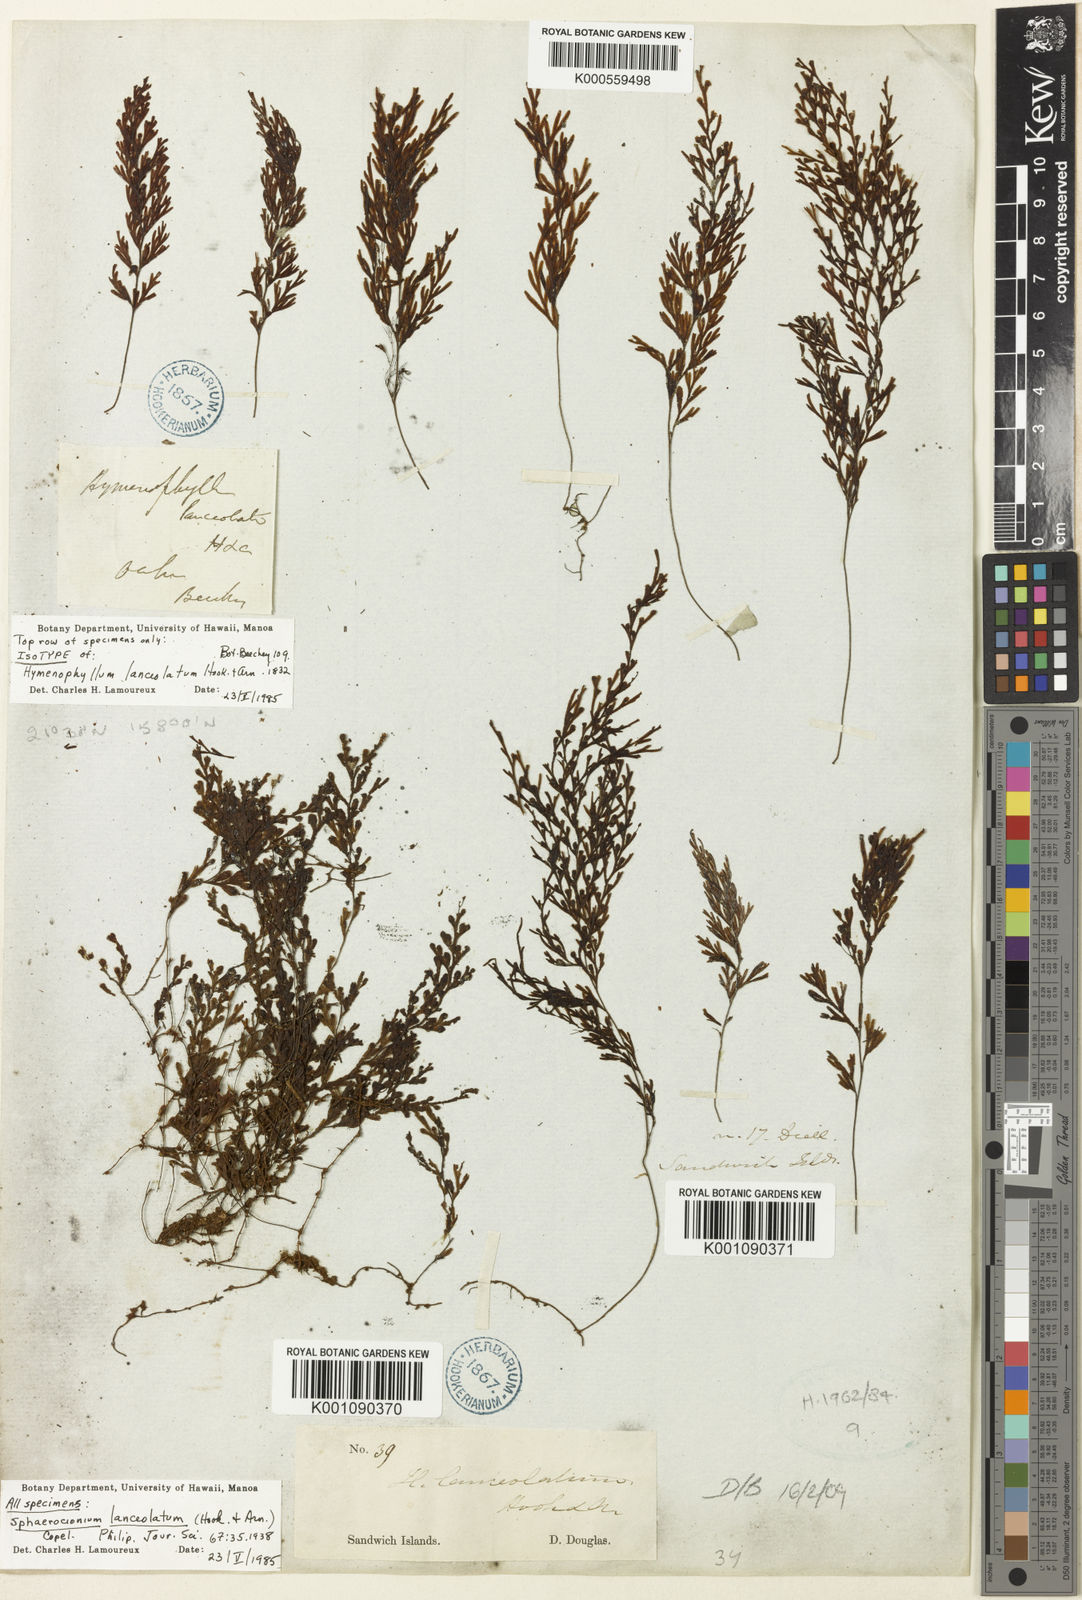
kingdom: Plantae
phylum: Tracheophyta
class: Polypodiopsida
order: Hymenophyllales
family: Hymenophyllaceae
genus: Hymenophyllum
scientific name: Hymenophyllum lanceolatum
